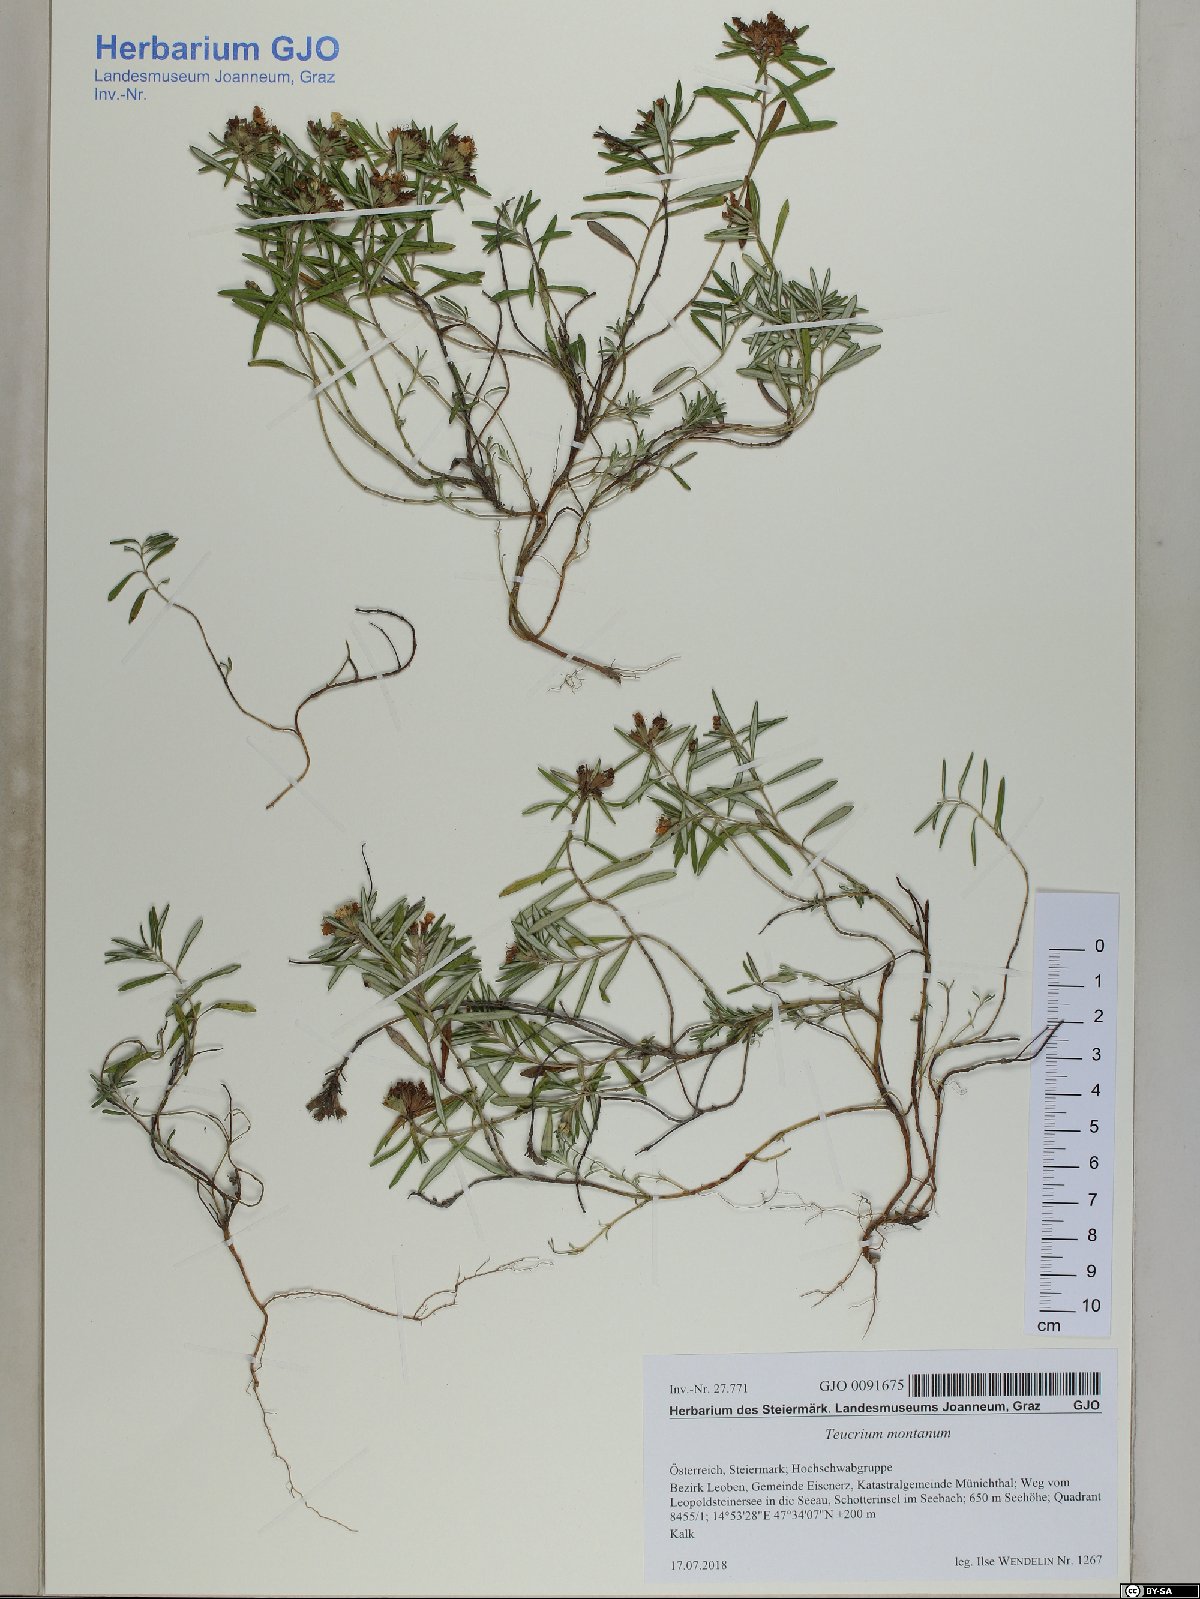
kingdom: Plantae
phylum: Tracheophyta
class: Magnoliopsida
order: Lamiales
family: Lamiaceae
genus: Teucrium
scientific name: Teucrium montanum
